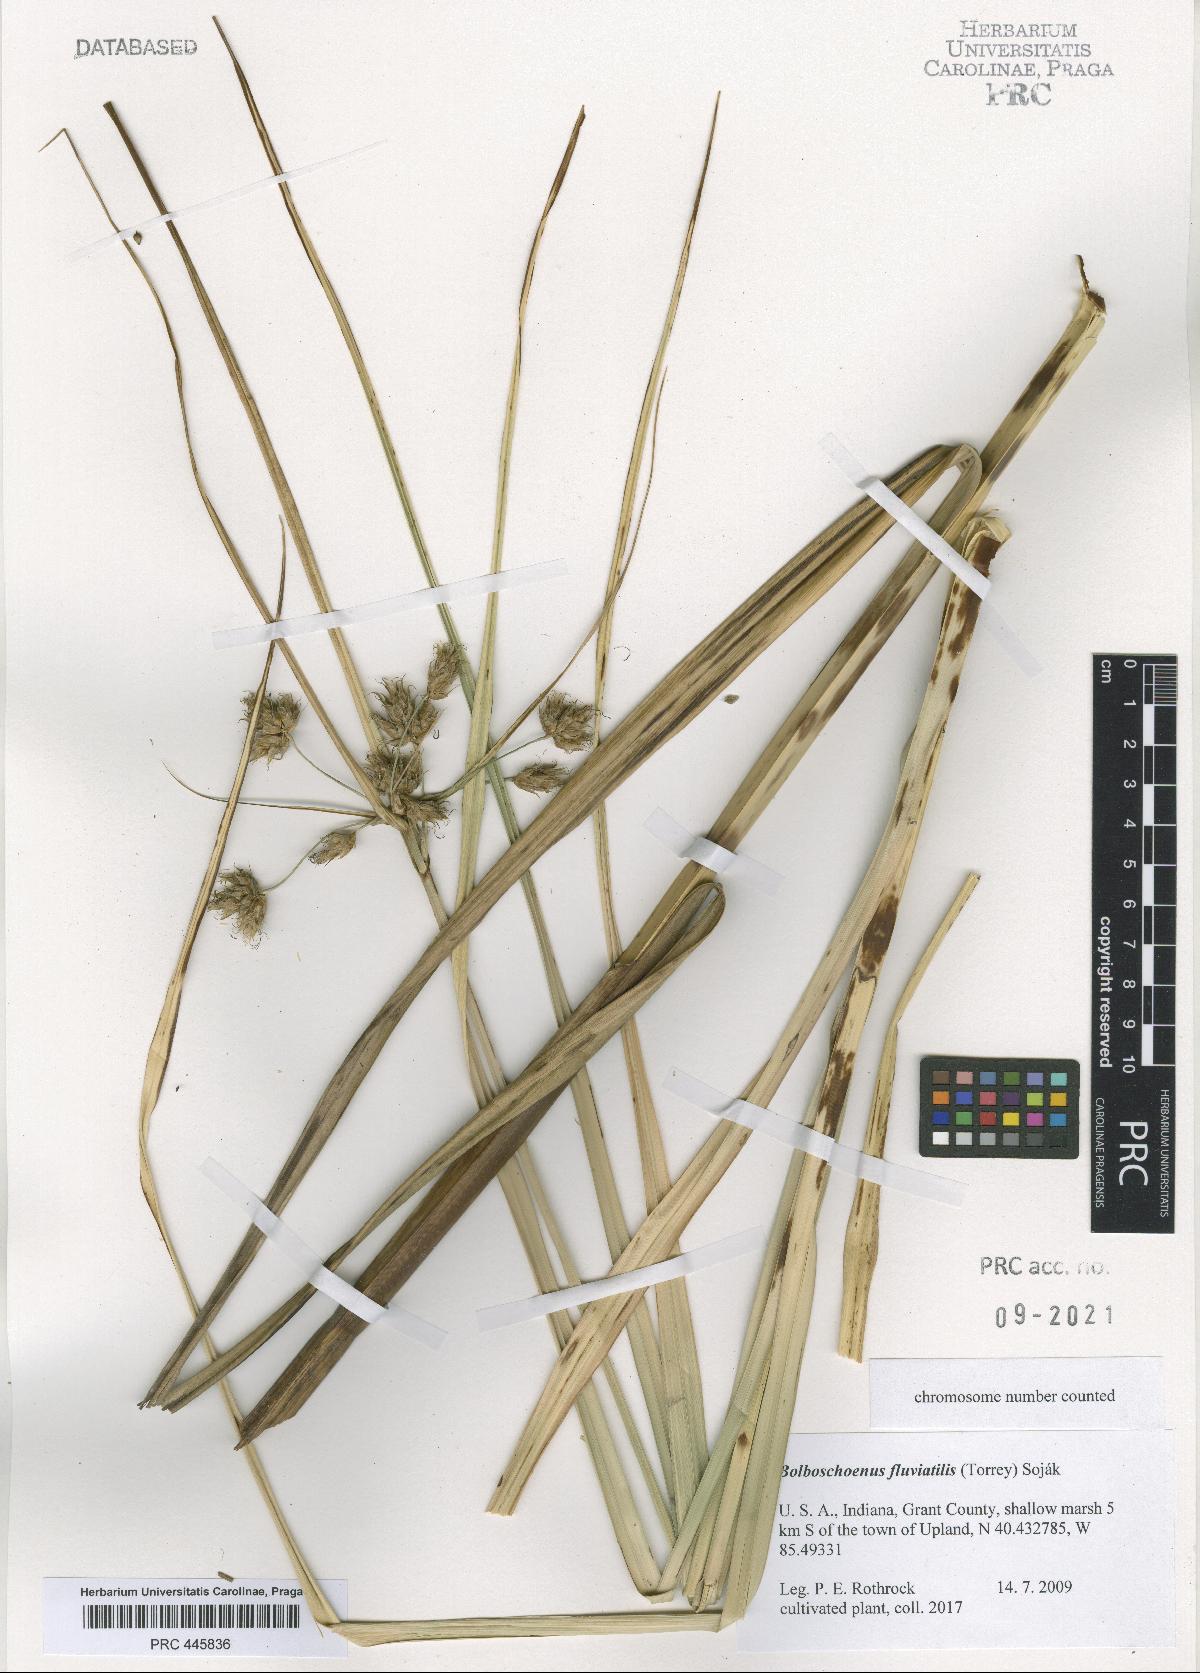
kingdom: Plantae
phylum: Tracheophyta
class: Liliopsida
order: Poales
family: Cyperaceae
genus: Bolboschoenus
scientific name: Bolboschoenus fluviatilis
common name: River bulrush
